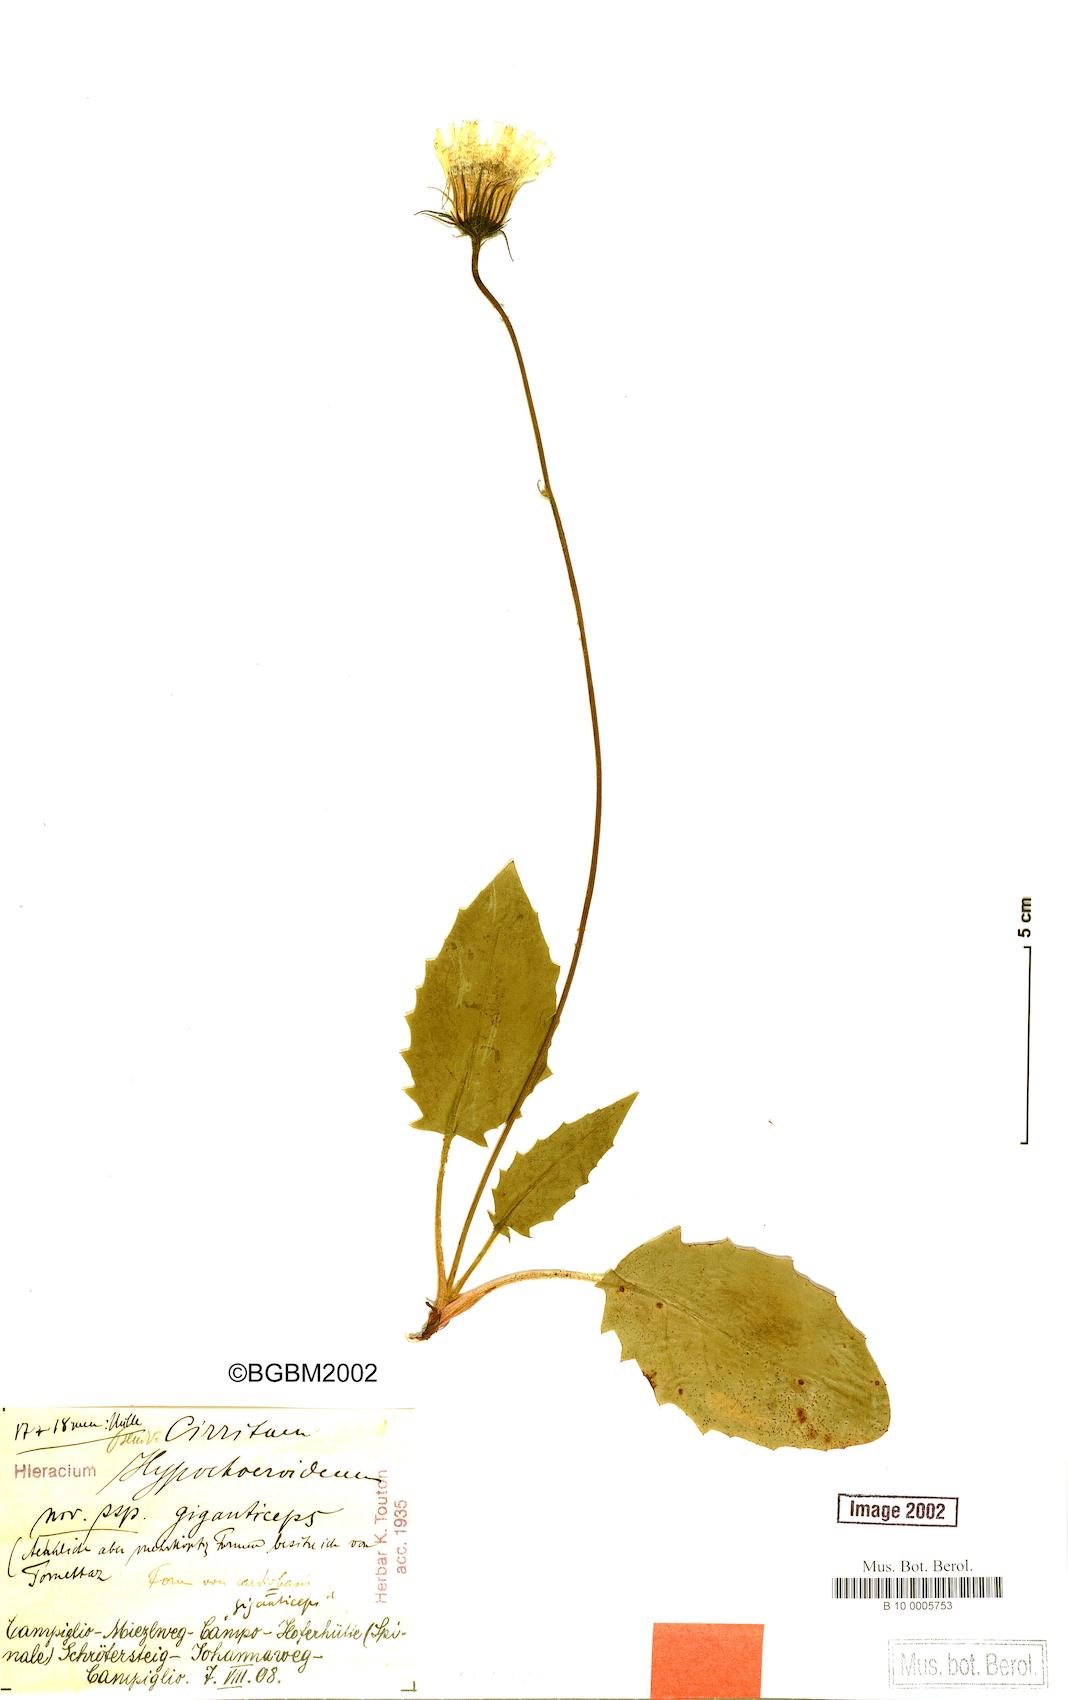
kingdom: Plantae
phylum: Tracheophyta
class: Magnoliopsida
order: Asterales
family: Asteraceae
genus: Hieracium
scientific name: Hieracium bifidum
